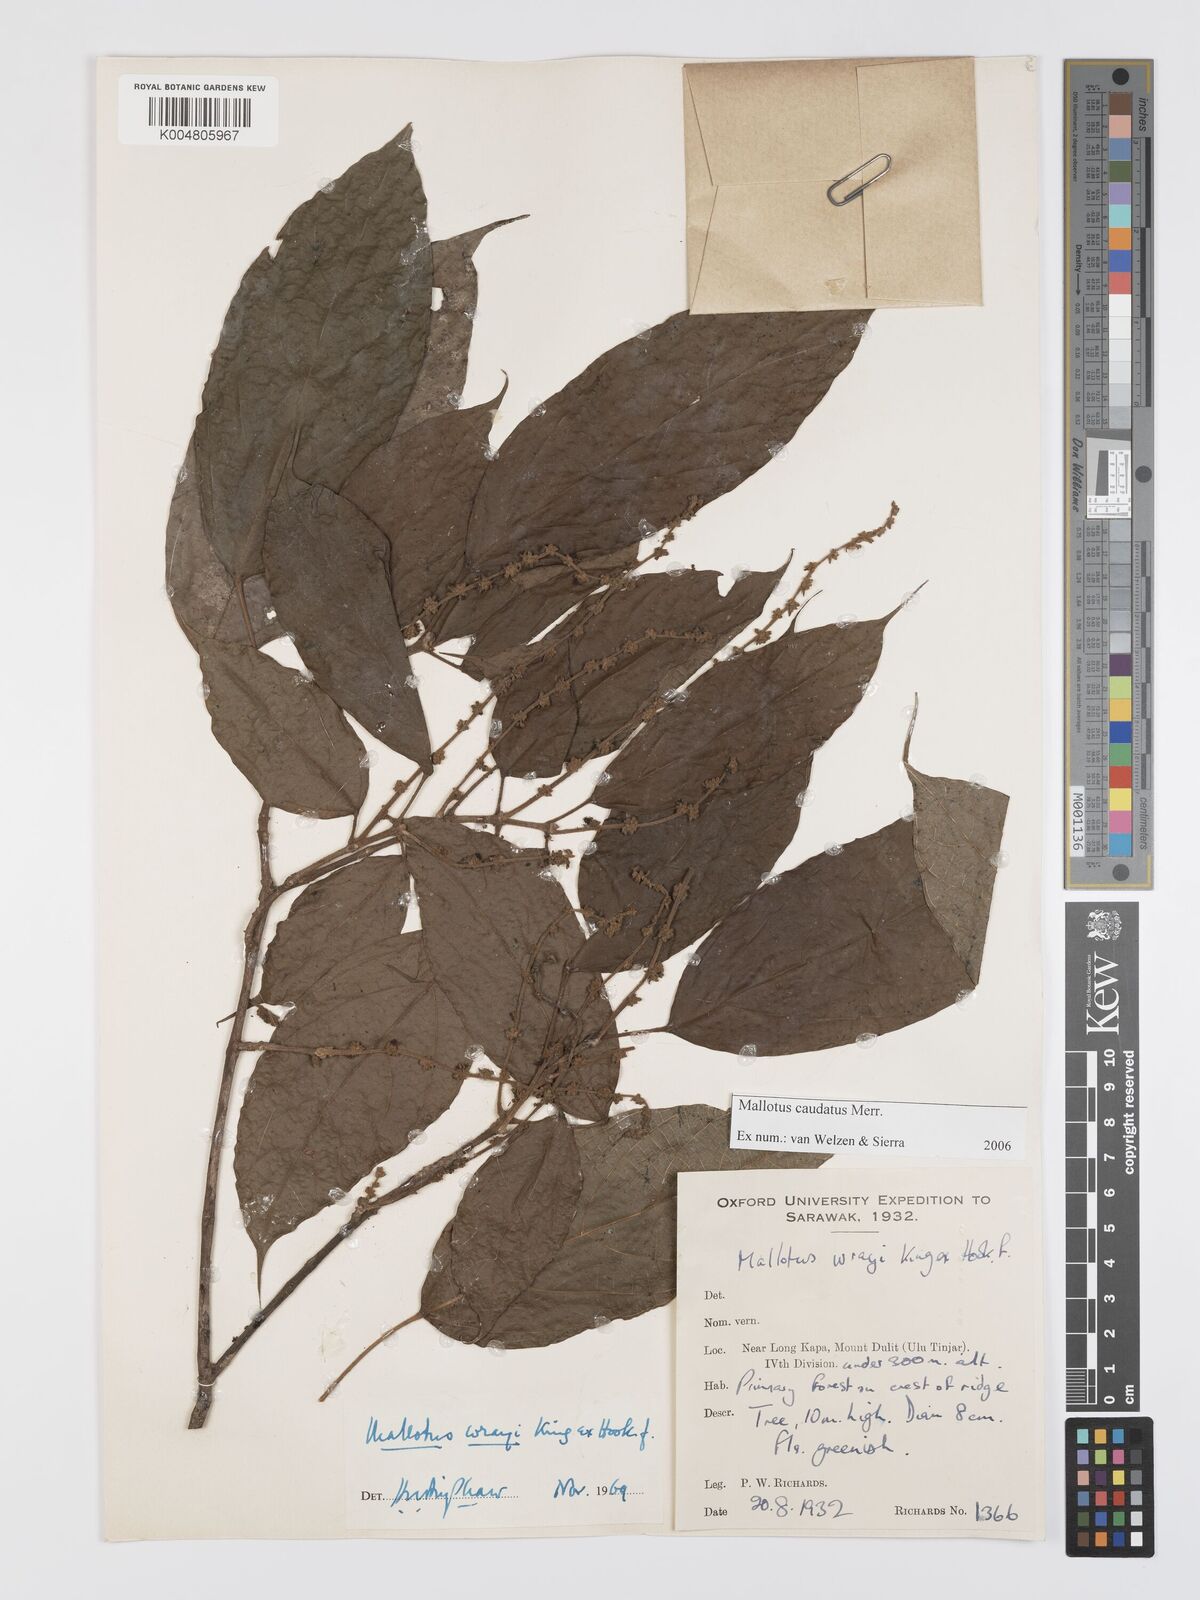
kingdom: Plantae
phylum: Tracheophyta
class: Magnoliopsida
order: Malpighiales
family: Euphorbiaceae
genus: Mallotus
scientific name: Mallotus caudatus
